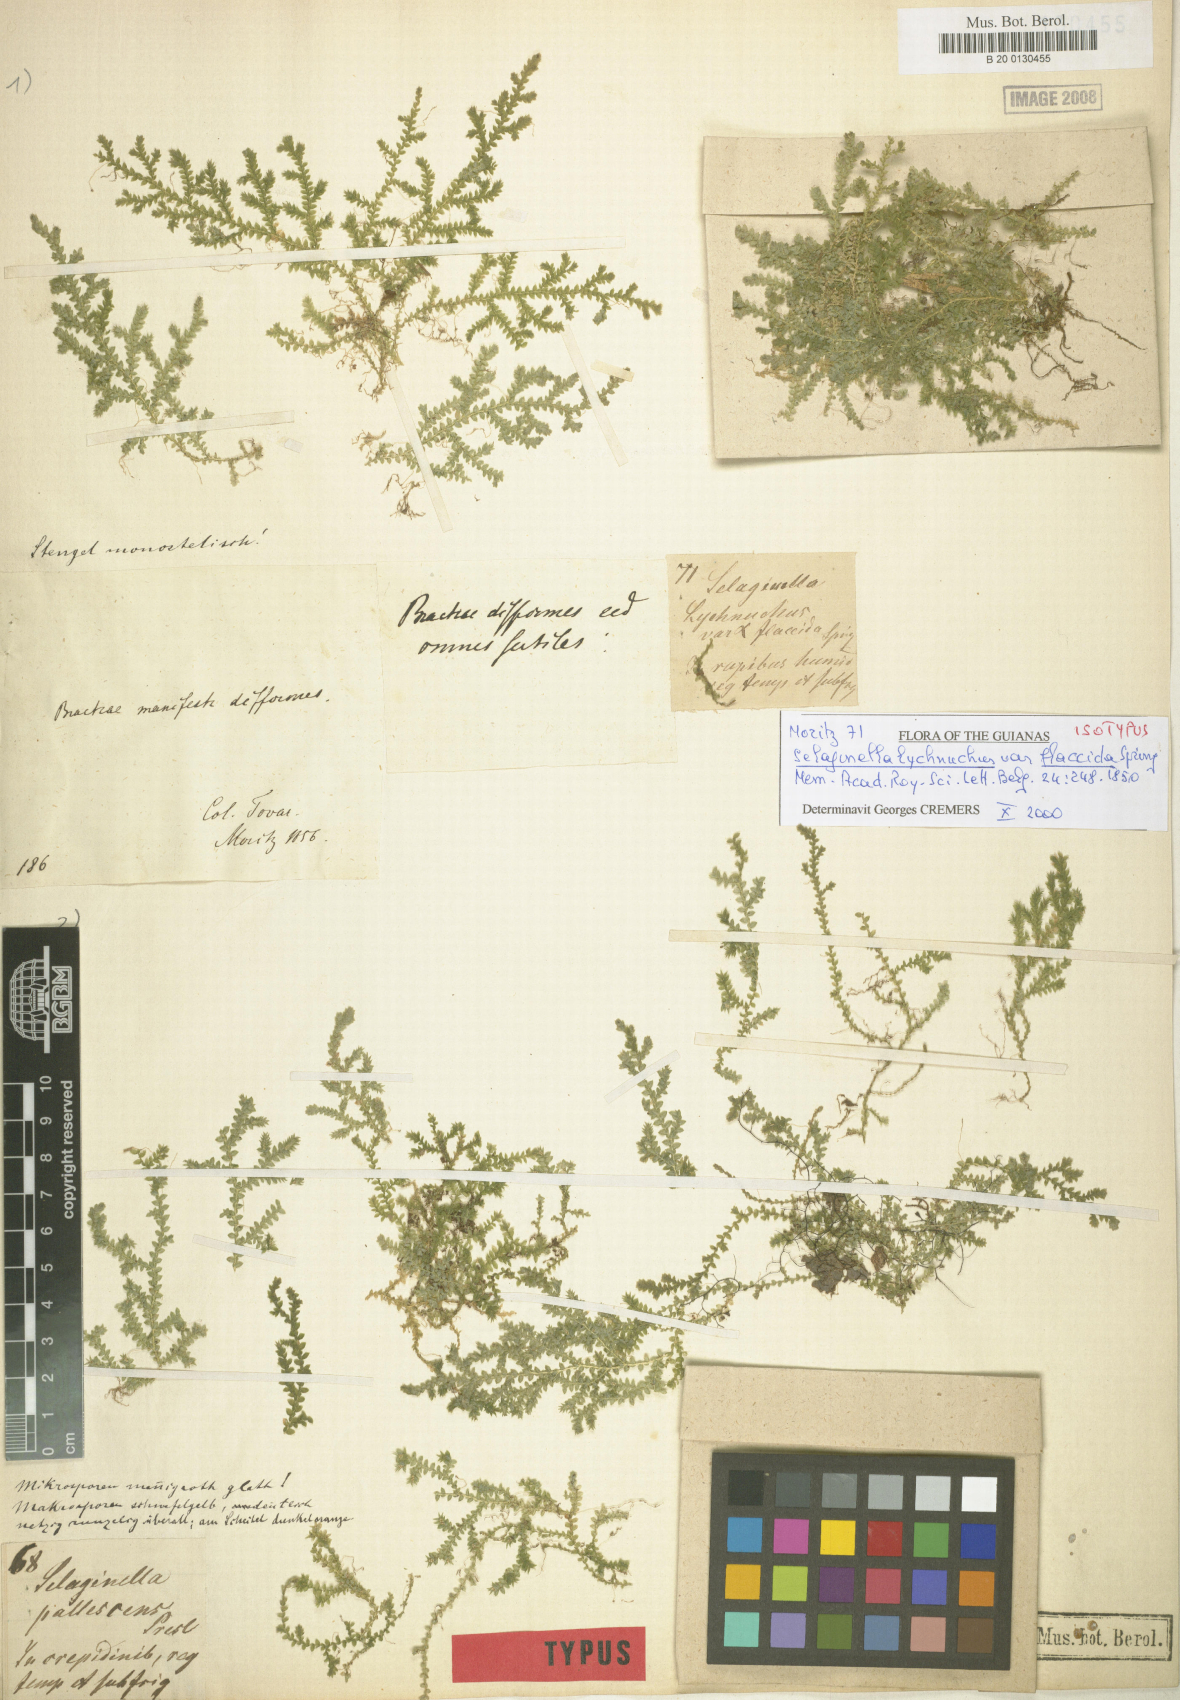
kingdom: Plantae
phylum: Tracheophyta
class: Lycopodiopsida
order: Selaginellales
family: Selaginellaceae
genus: Selaginella
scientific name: Selaginella cavifolia
